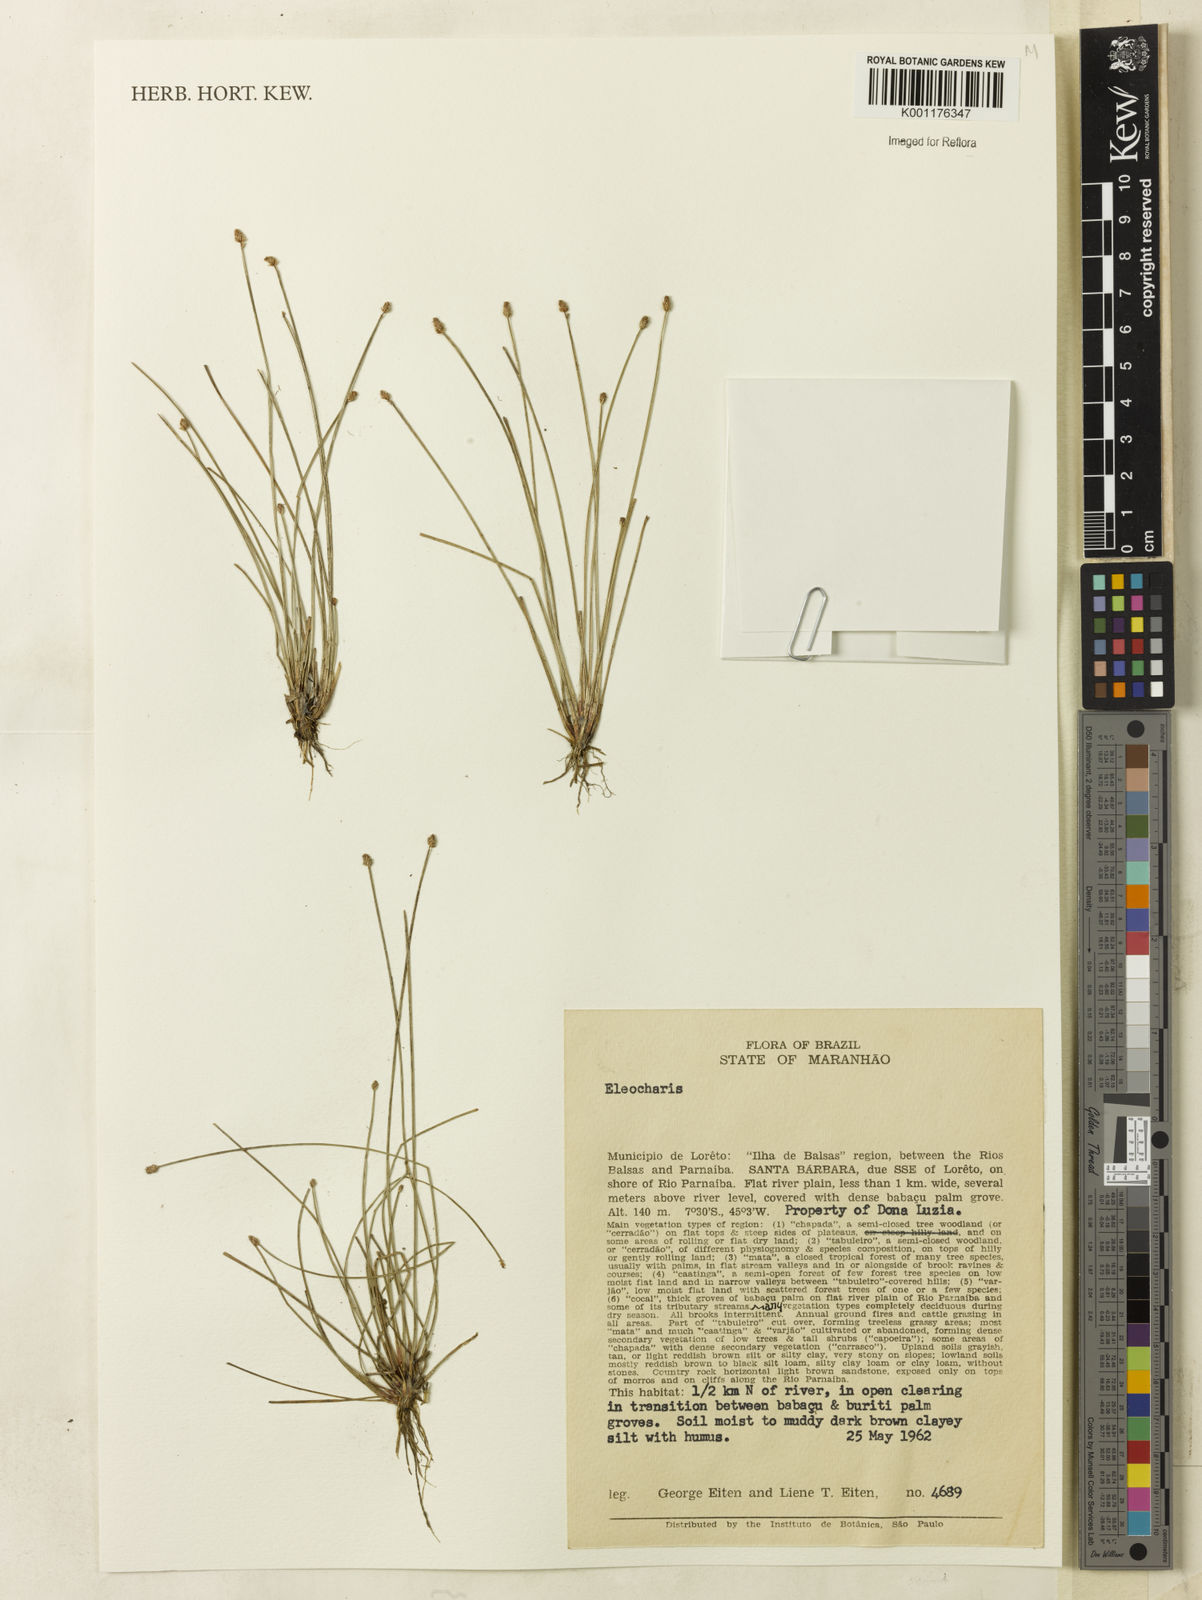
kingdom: Plantae
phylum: Tracheophyta
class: Liliopsida
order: Poales
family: Cyperaceae
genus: Eleocharis
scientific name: Eleocharis
